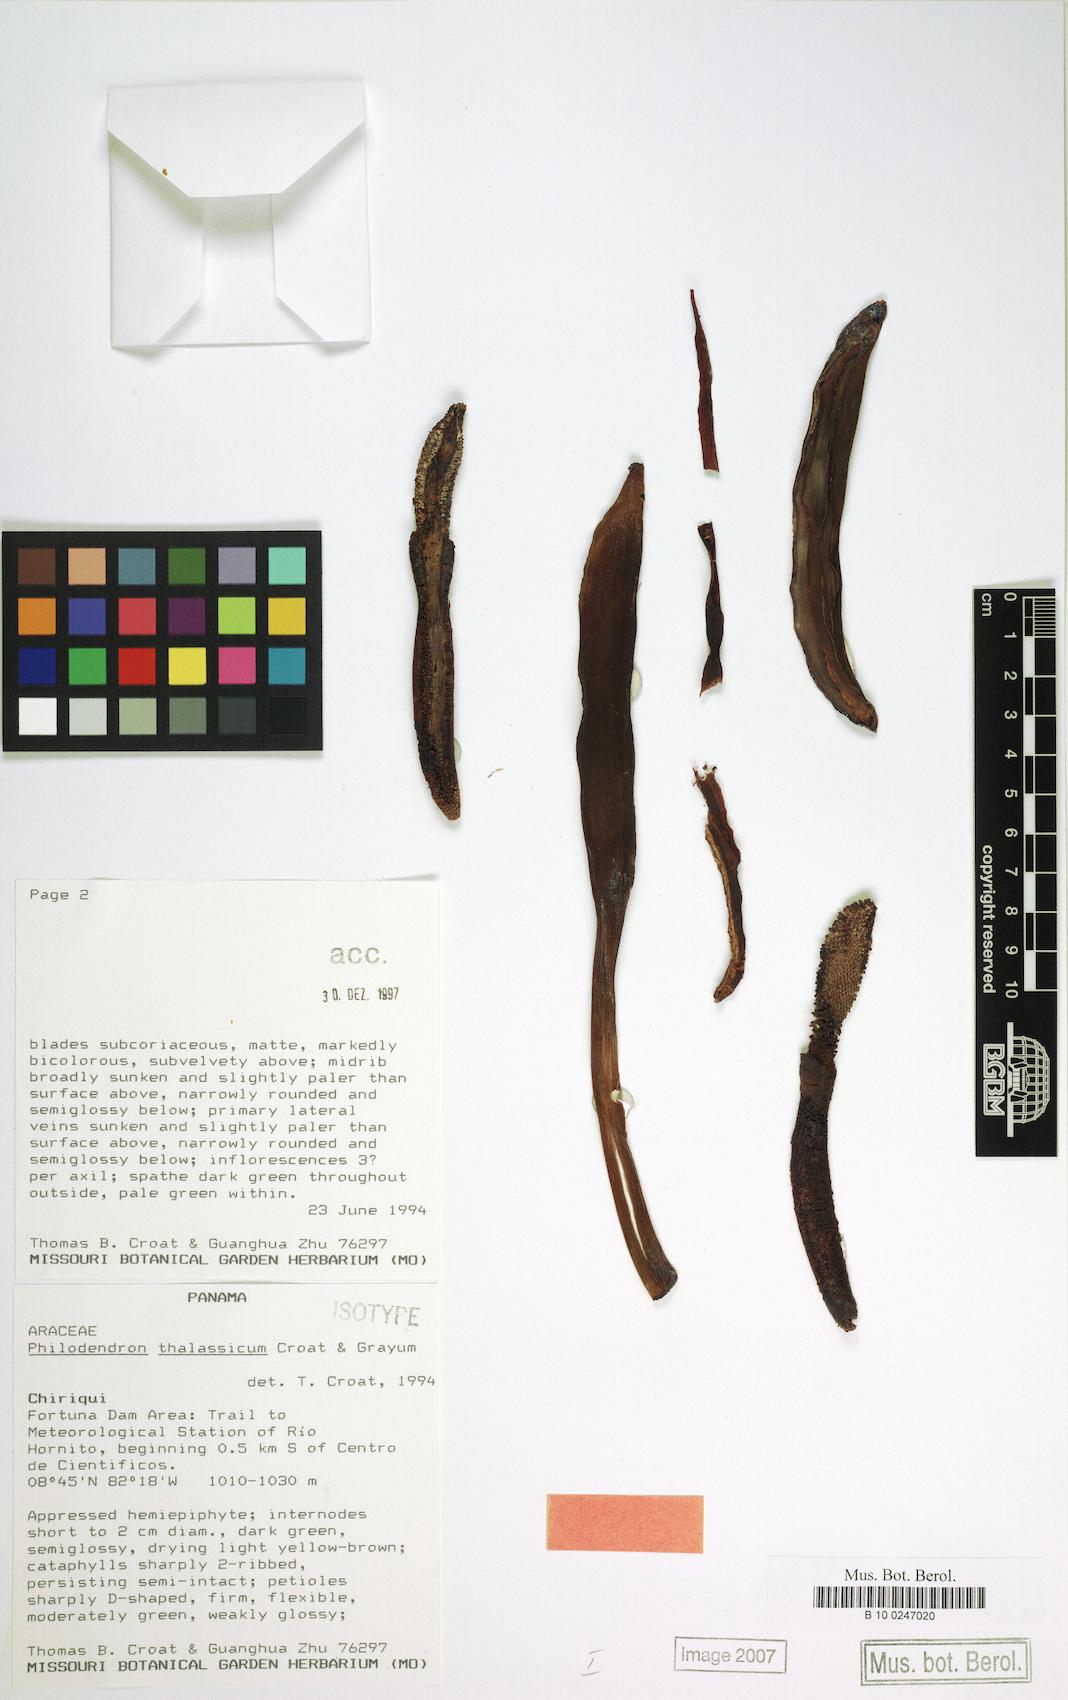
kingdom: Plantae
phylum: Tracheophyta
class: Liliopsida
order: Alismatales
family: Araceae
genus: Philodendron
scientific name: Philodendron thalassicum
